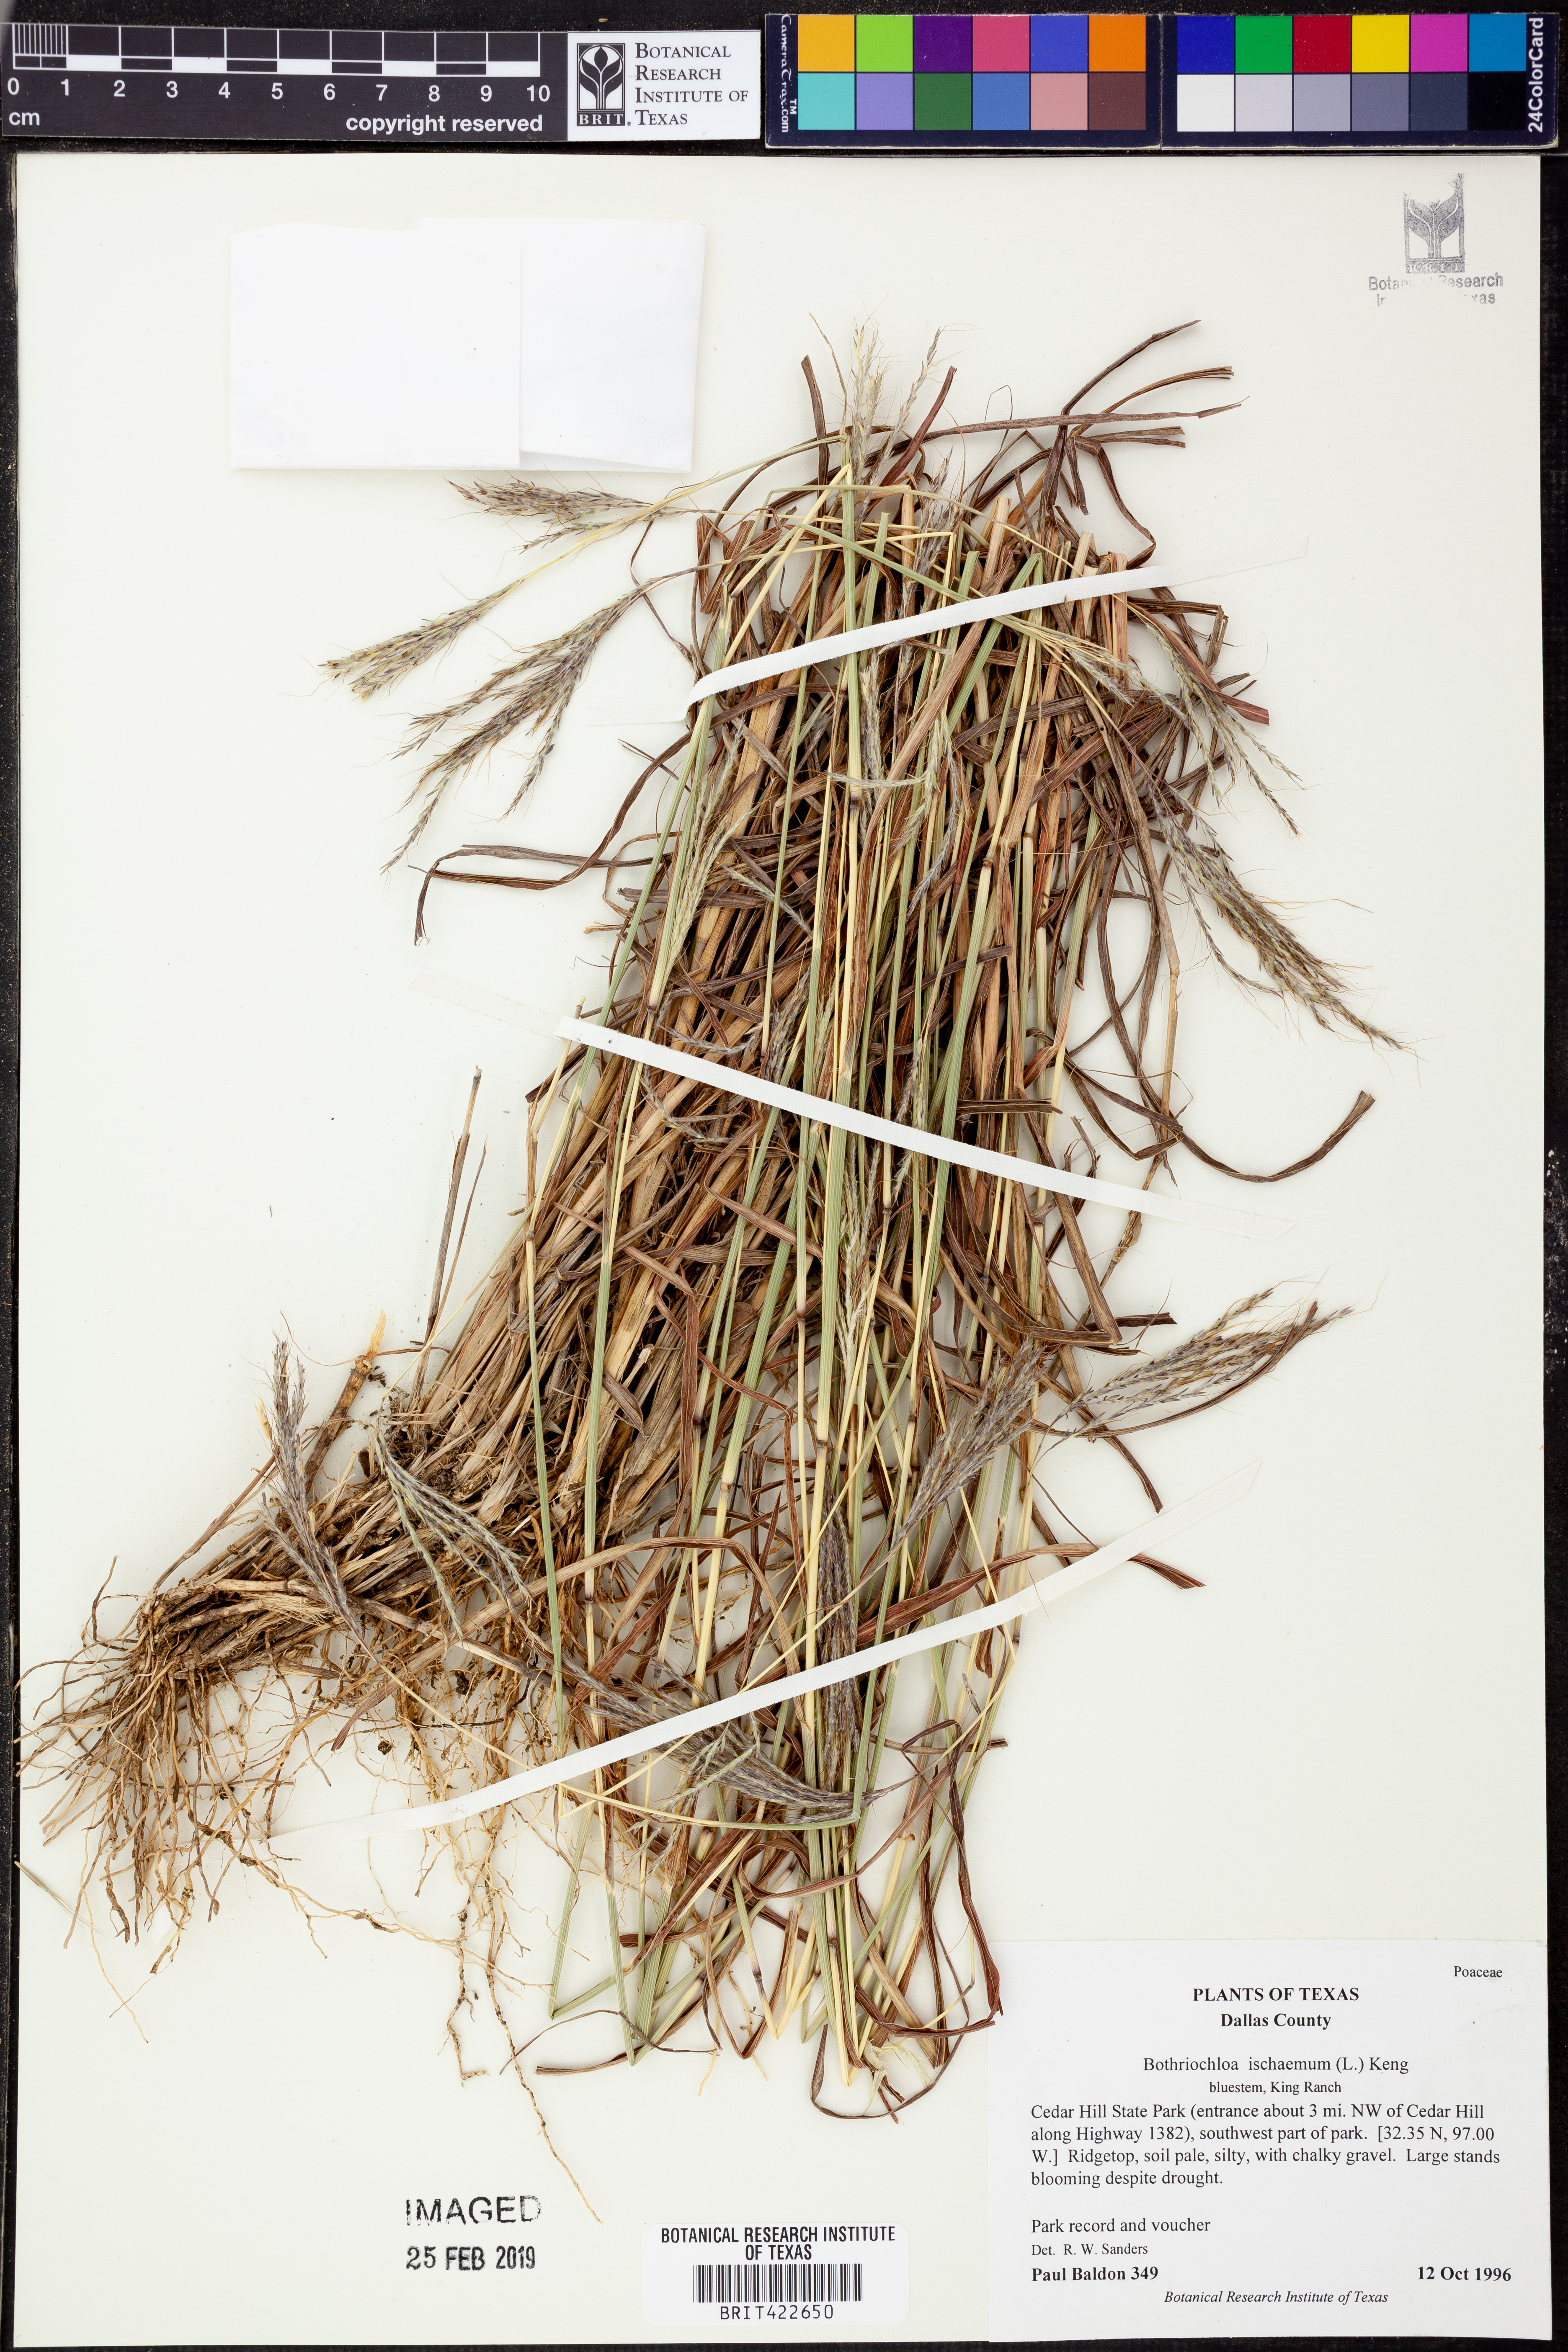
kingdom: Plantae
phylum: Tracheophyta
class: Liliopsida
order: Poales
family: Poaceae
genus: Bothriochloa
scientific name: Bothriochloa ischaemum
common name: Yellow bluestem
